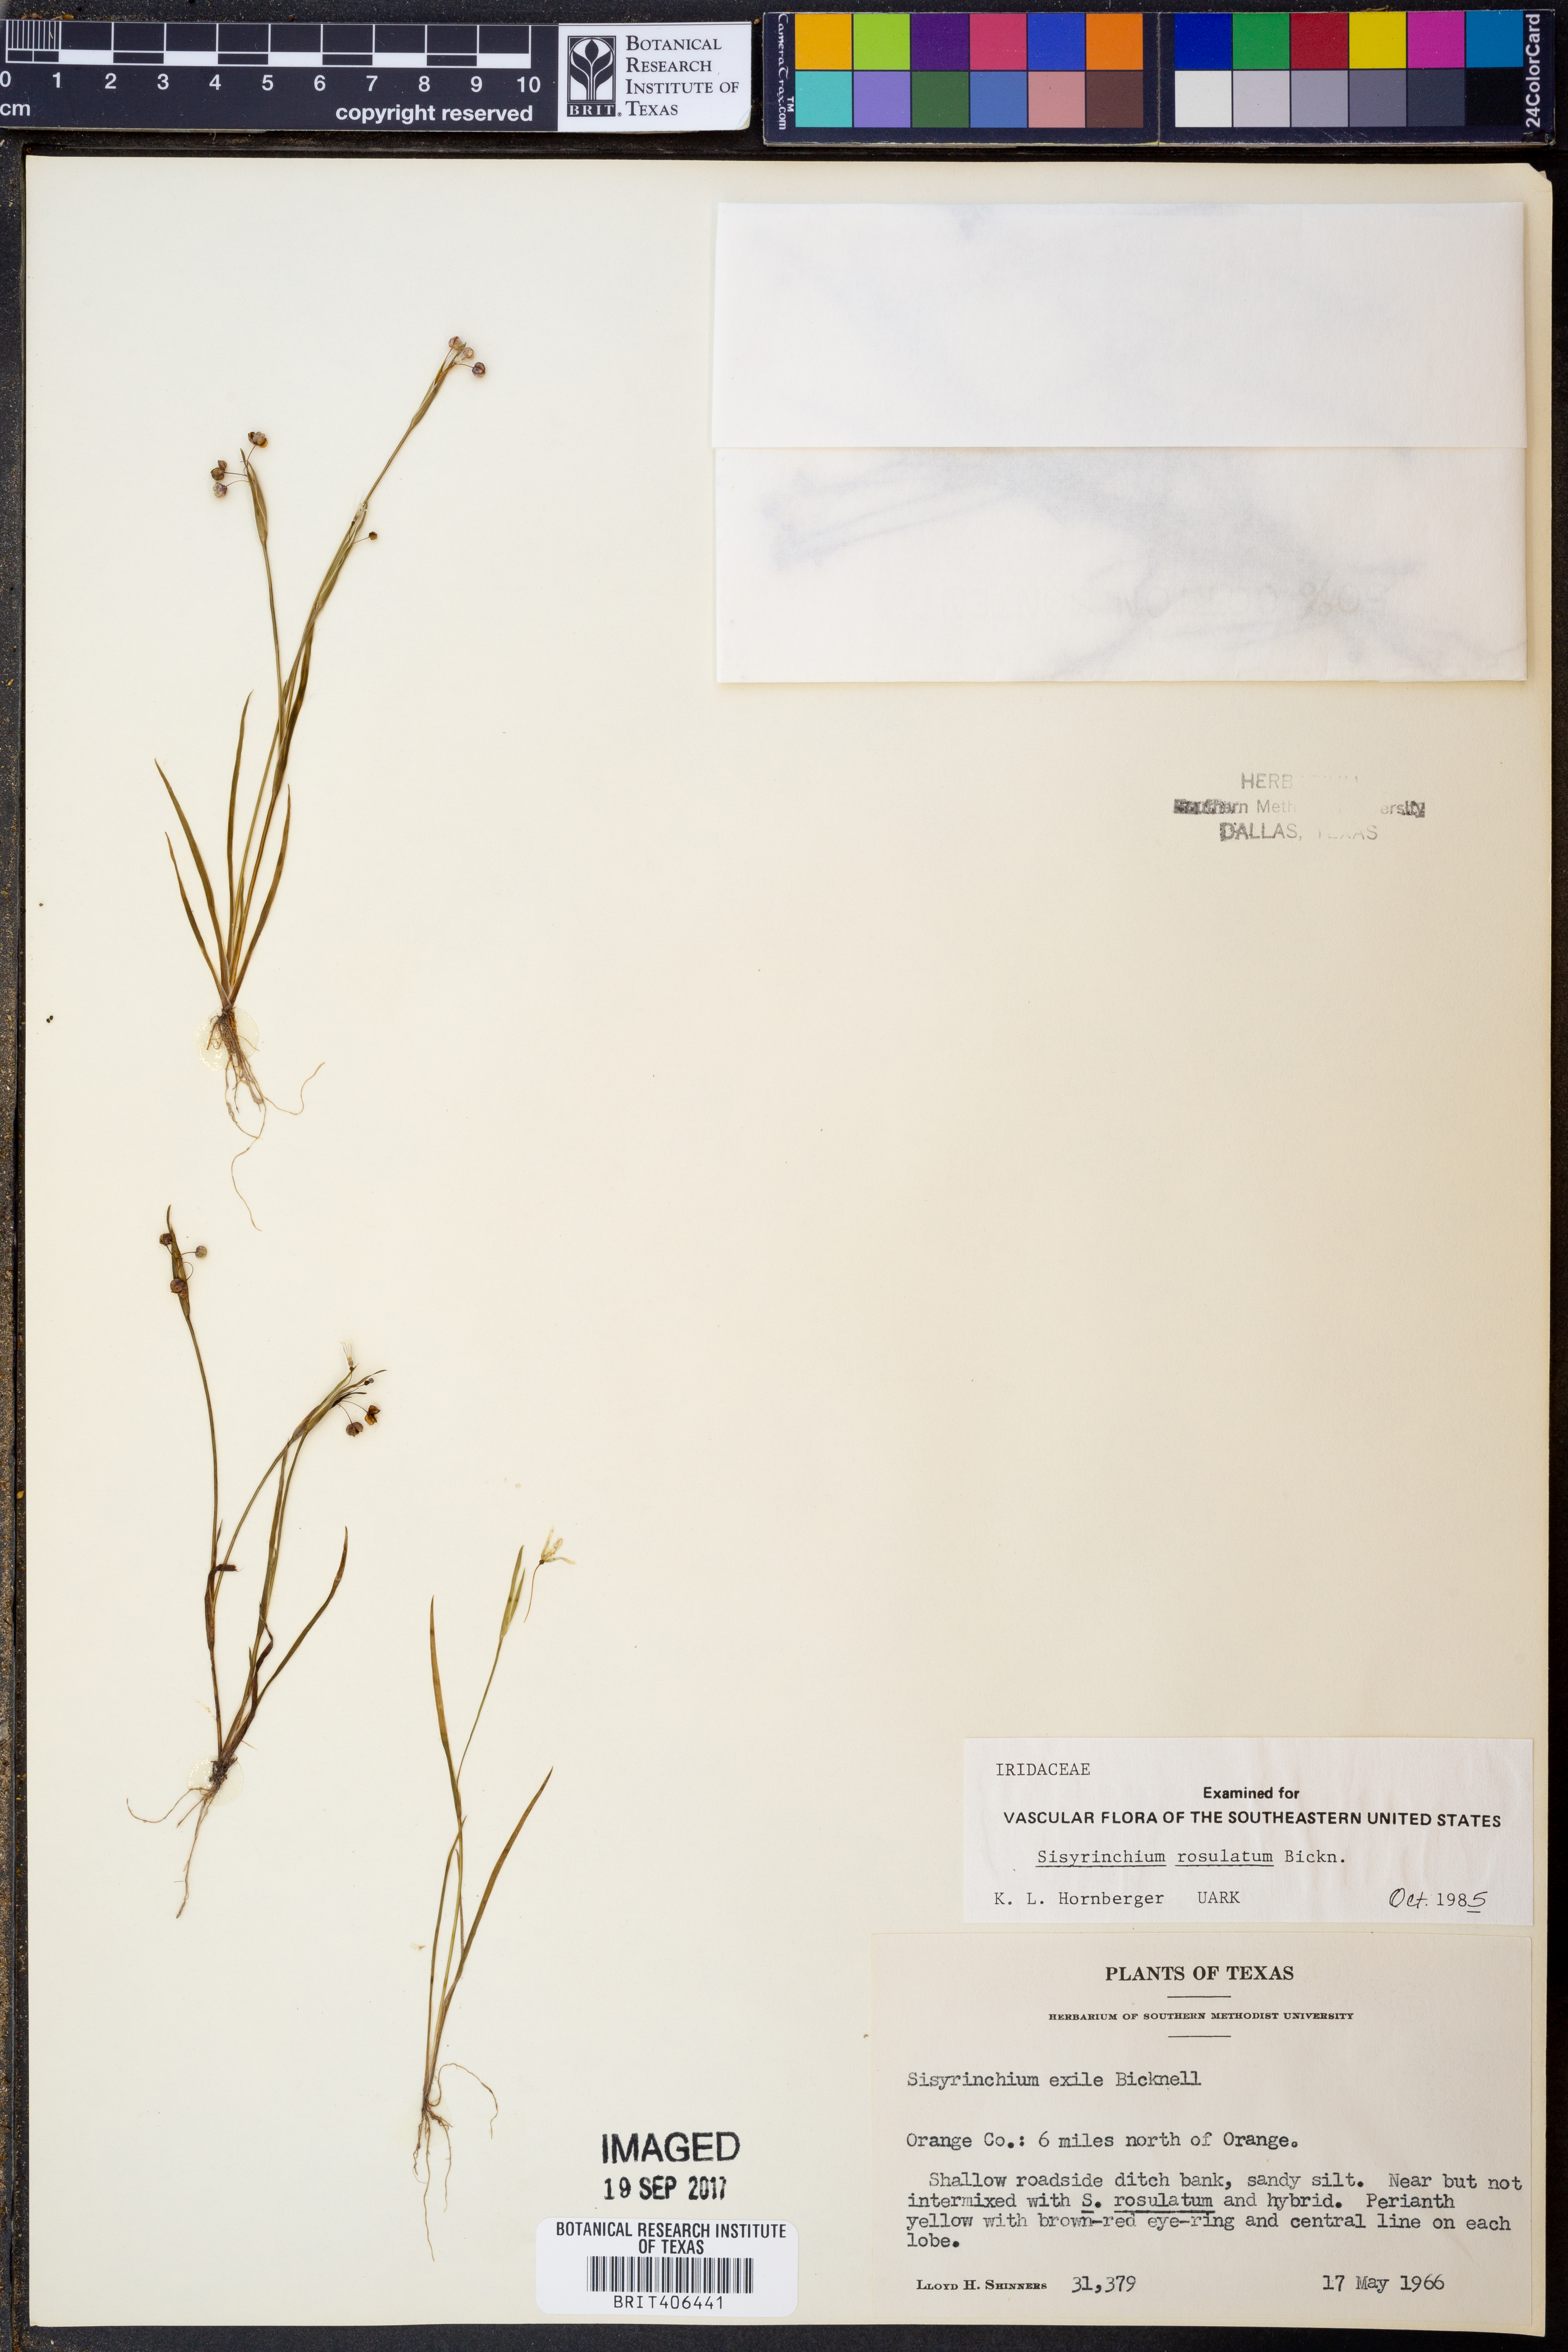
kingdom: Plantae
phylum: Tracheophyta
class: Liliopsida
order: Asparagales
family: Iridaceae
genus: Sisyrinchium
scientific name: Sisyrinchium rosulatum
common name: Annual blue-eyed grass
